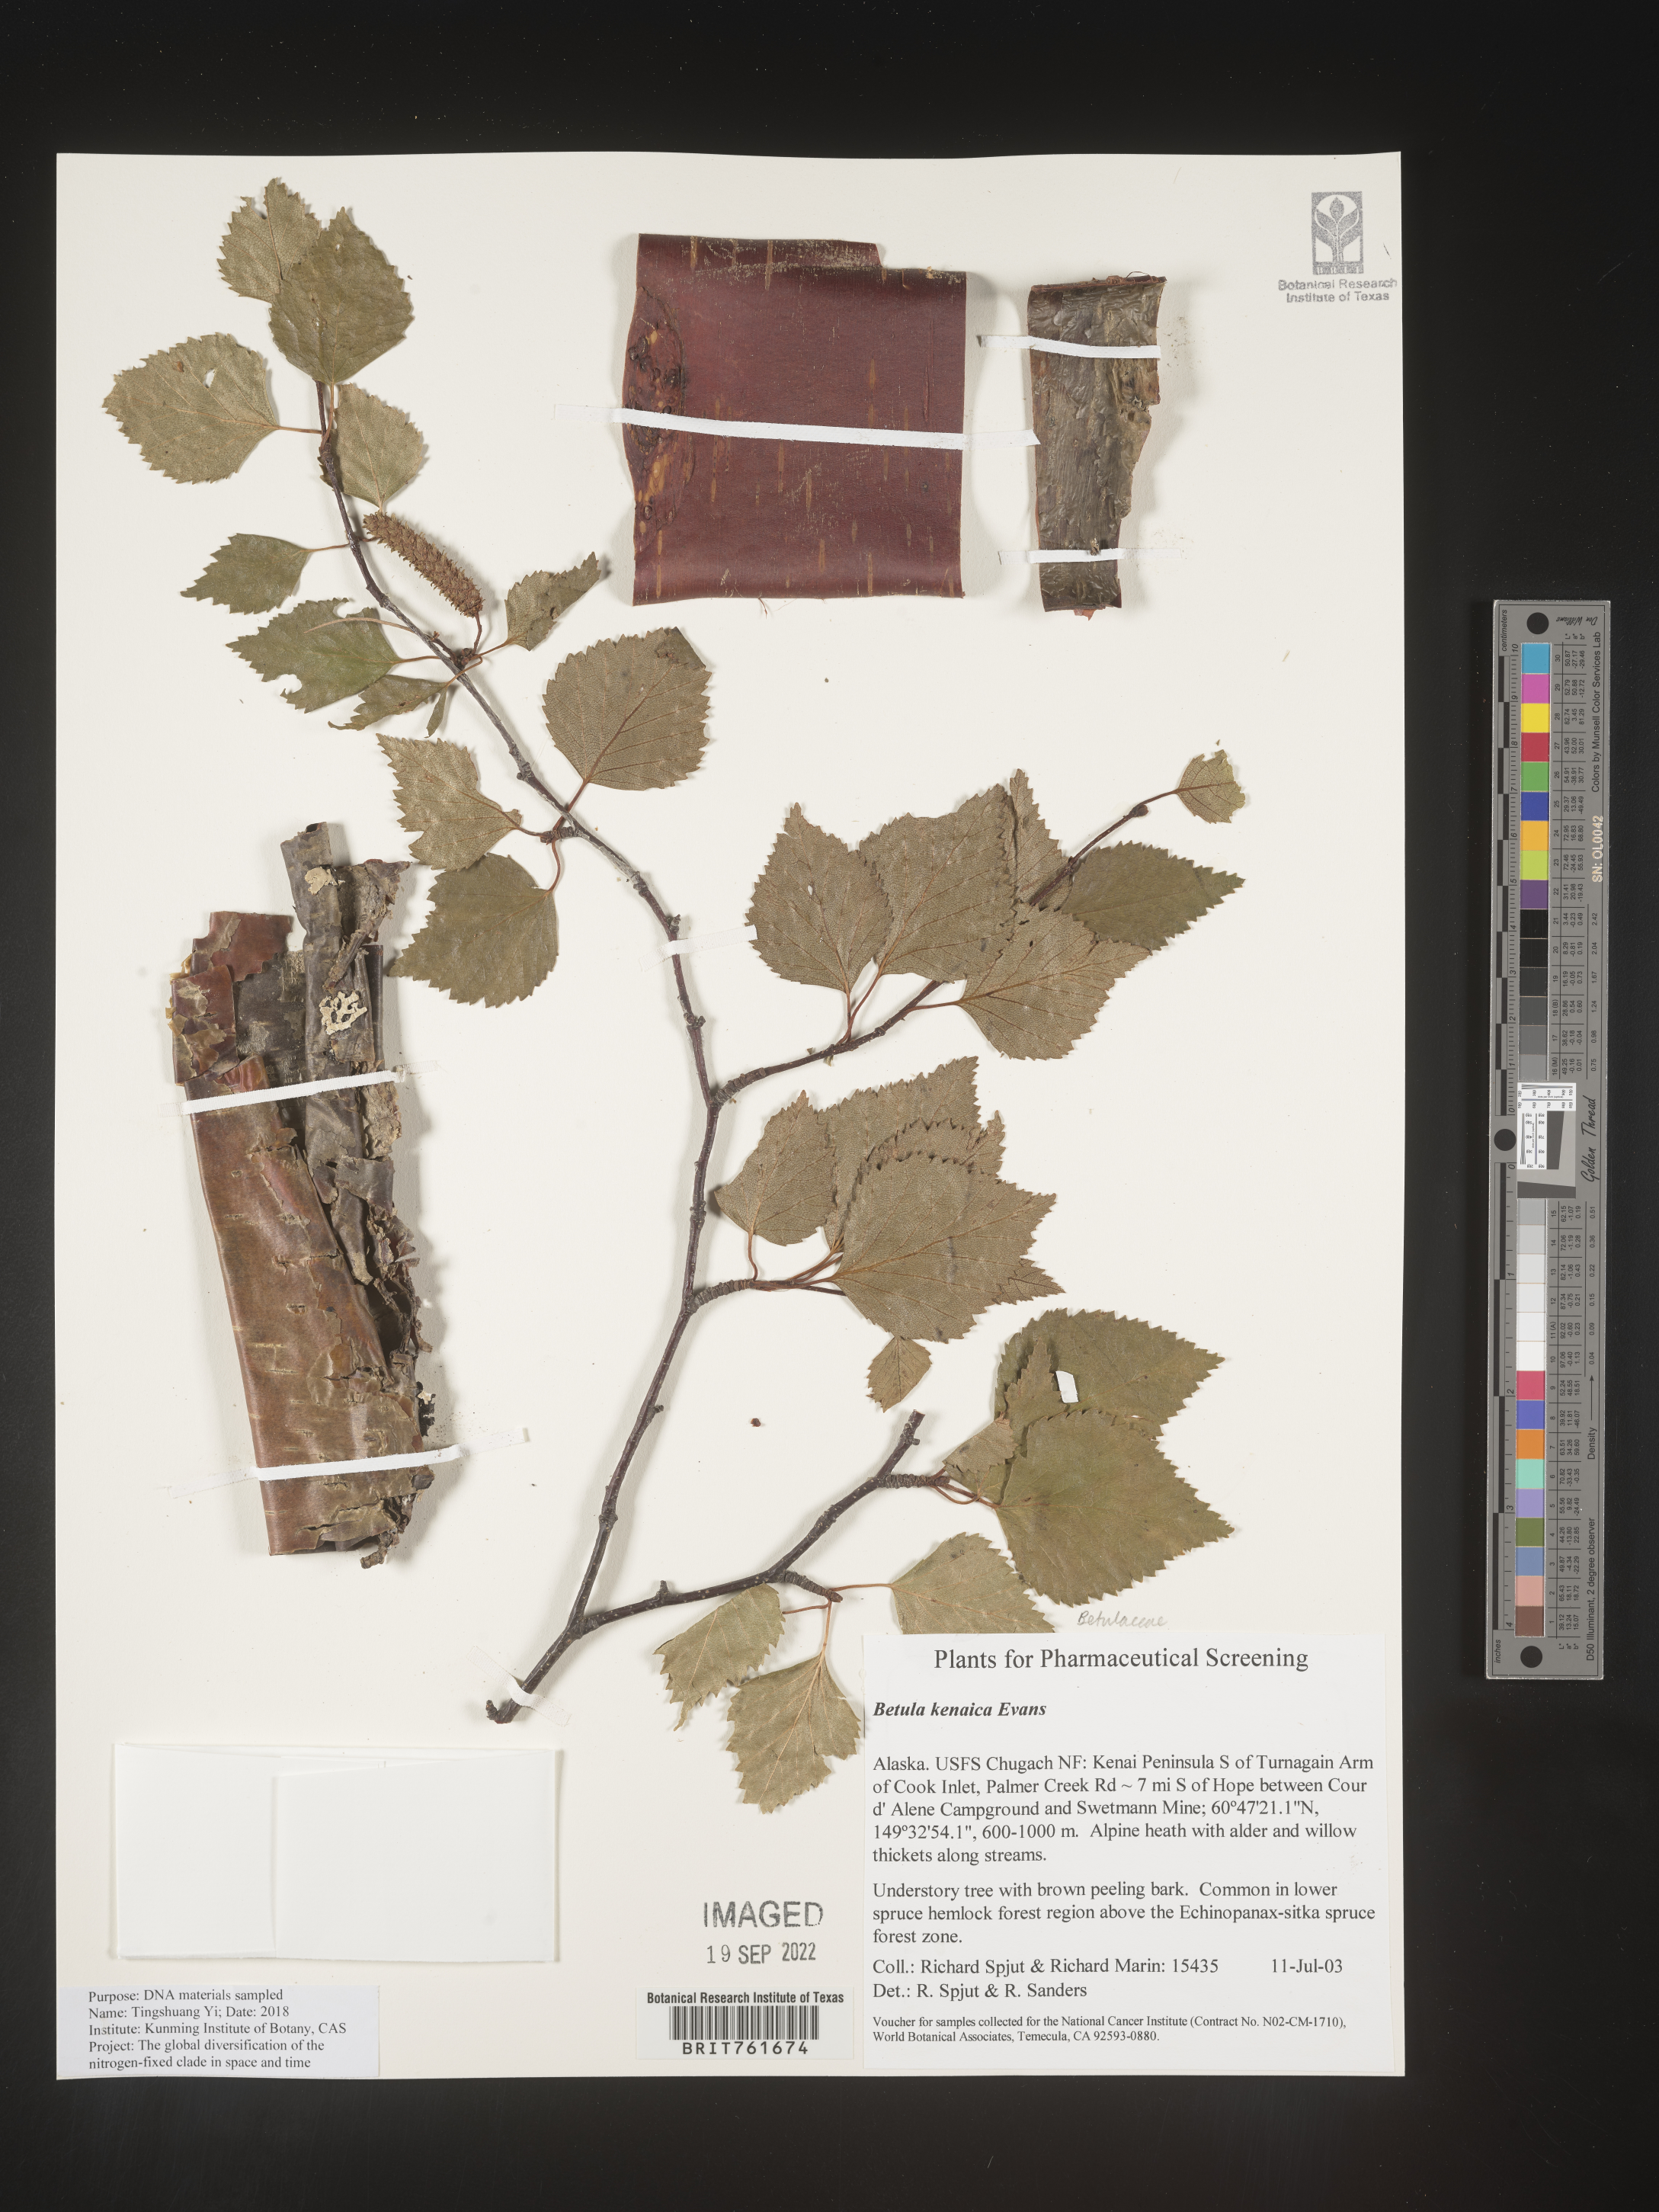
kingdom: Plantae
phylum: Tracheophyta
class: Magnoliopsida
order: Fagales
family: Betulaceae
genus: Betula
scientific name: Betula
